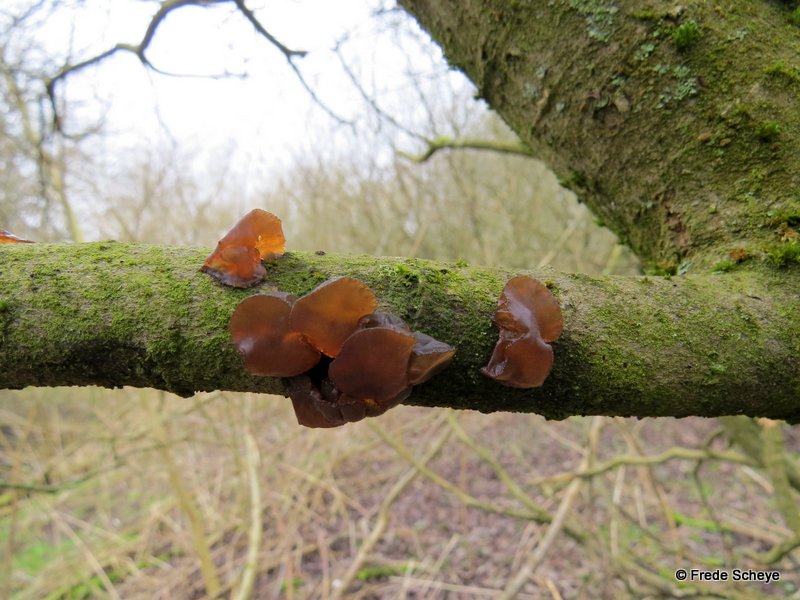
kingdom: Fungi
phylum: Basidiomycota
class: Agaricomycetes
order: Auriculariales
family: Auriculariaceae
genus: Exidia
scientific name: Exidia recisa
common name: pile-bævretop
